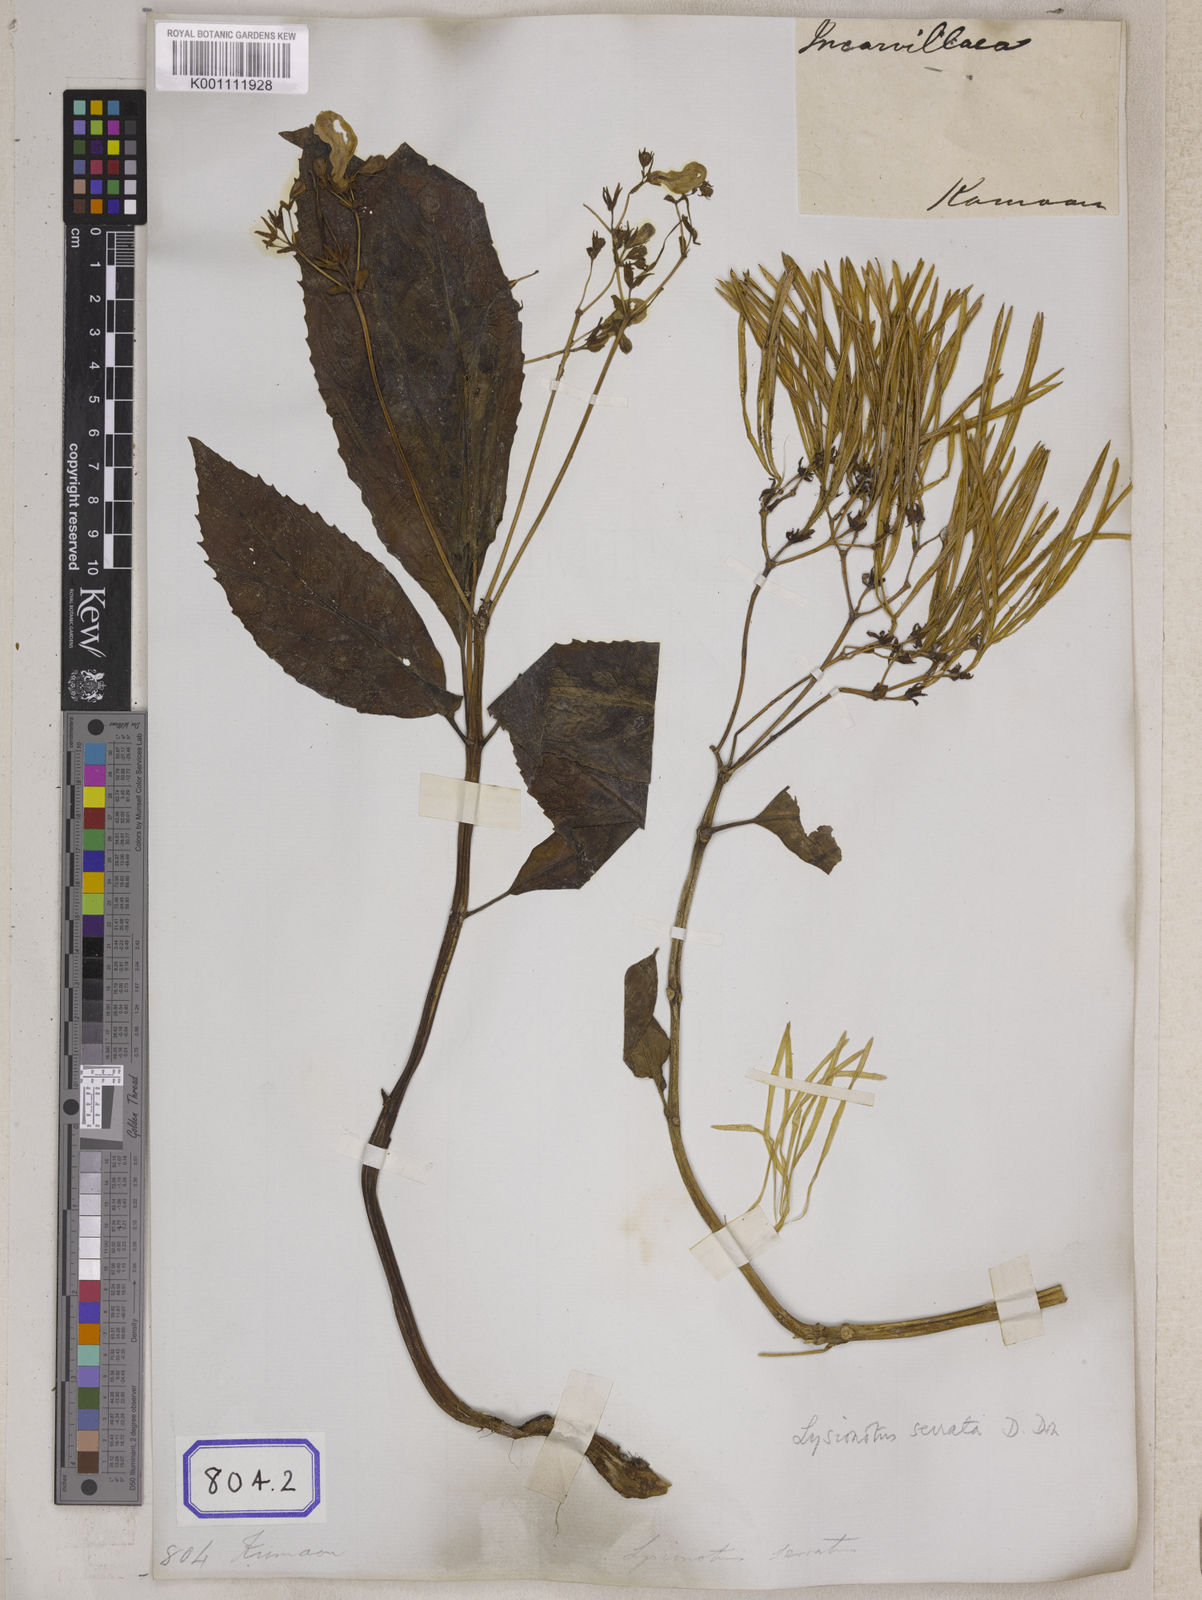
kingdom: Plantae
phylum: Tracheophyta
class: Magnoliopsida
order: Lamiales
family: Gesneriaceae
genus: Lysionotus
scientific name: Lysionotus serratus
